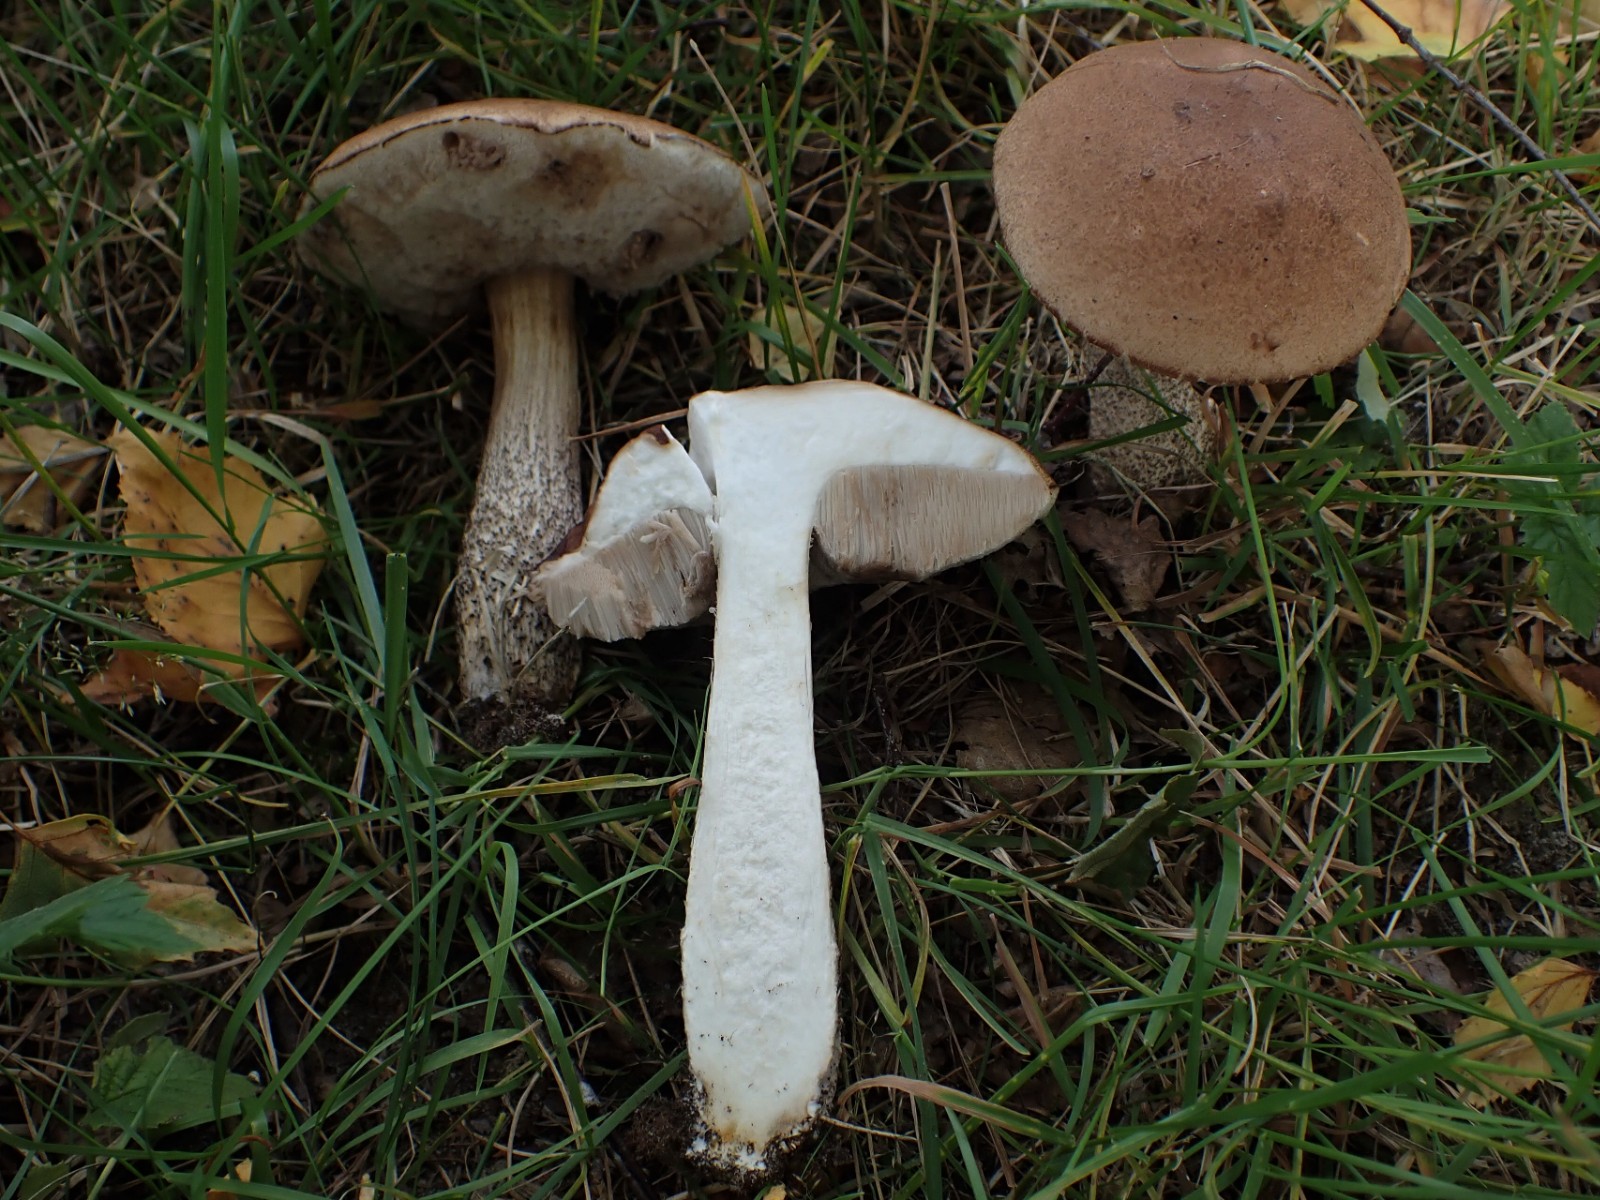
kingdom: Fungi
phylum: Basidiomycota
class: Agaricomycetes
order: Boletales
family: Boletaceae
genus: Leccinum
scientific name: Leccinum scabrum
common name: brun skælrørhat
